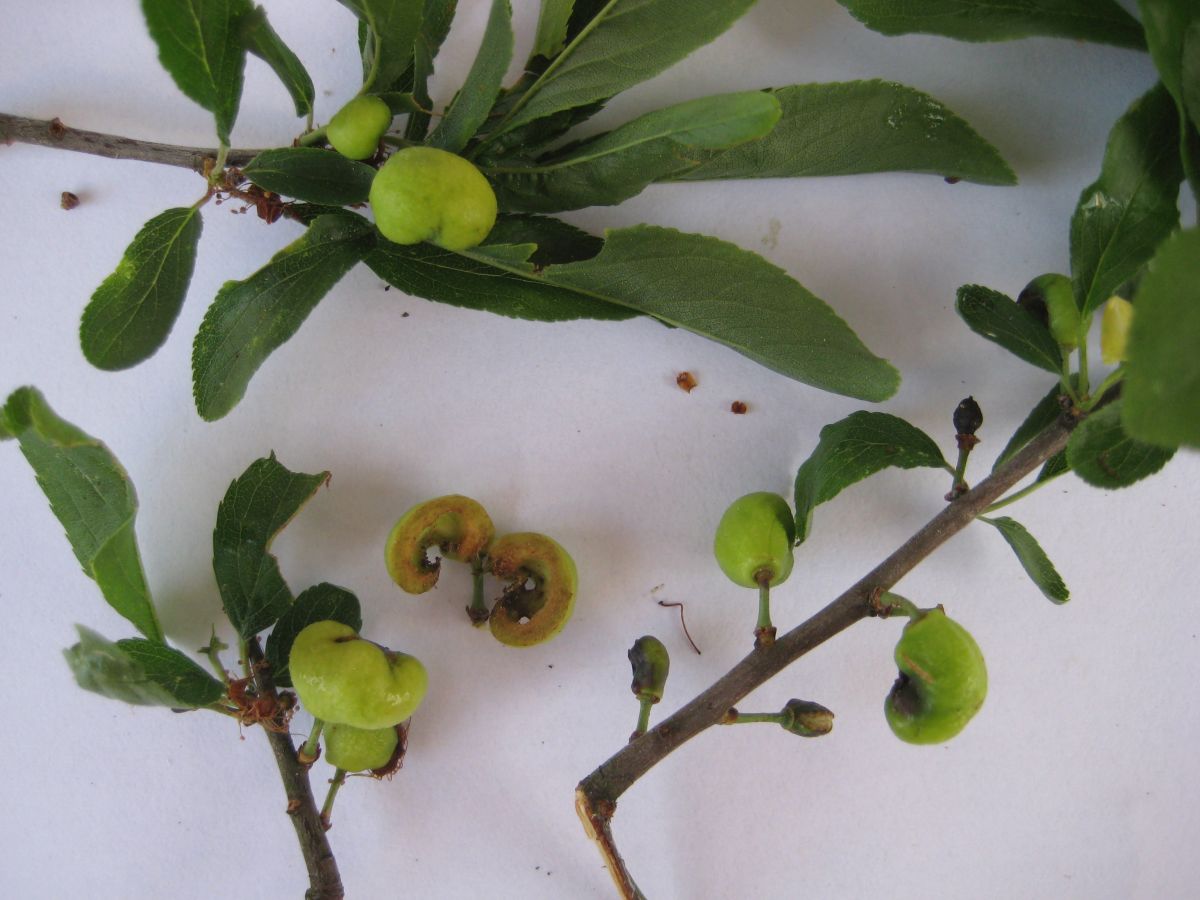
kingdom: Fungi
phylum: Ascomycota
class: Taphrinomycetes
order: Taphrinales
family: Taphrinaceae
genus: Taphrina
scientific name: Taphrina pruni
